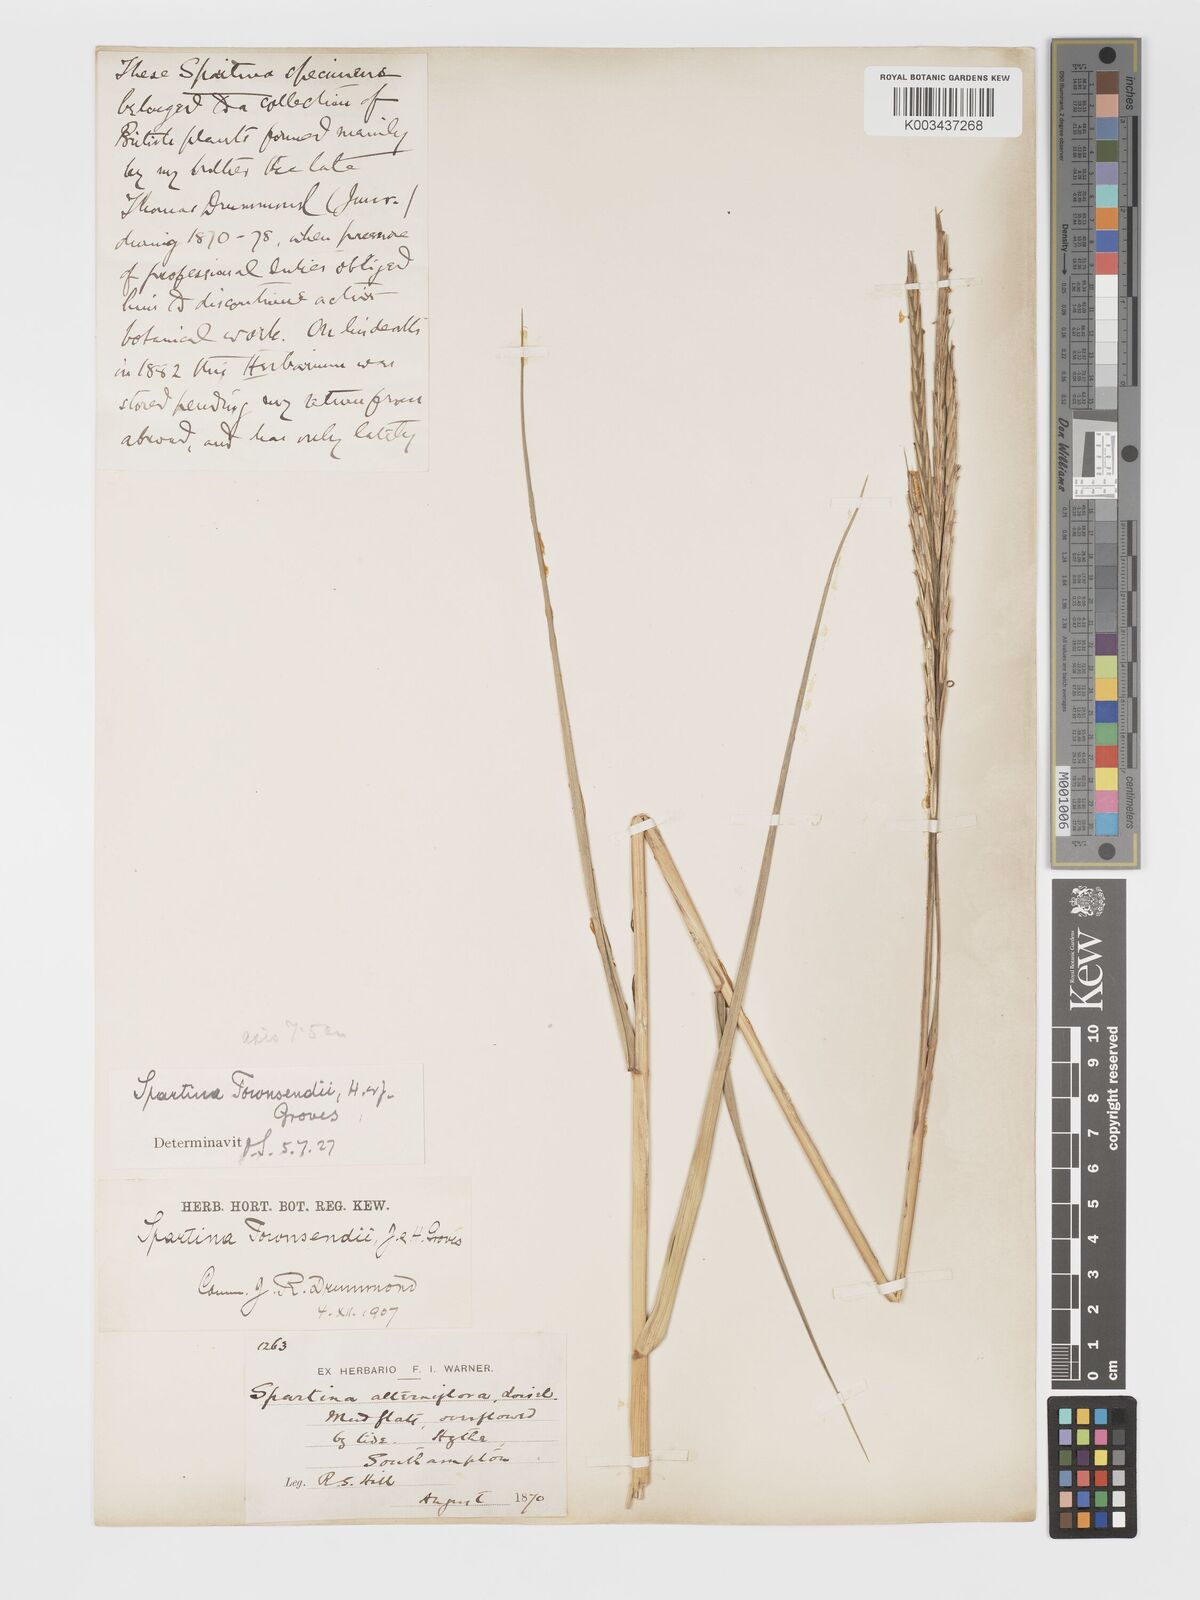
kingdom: Plantae
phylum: Tracheophyta
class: Liliopsida
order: Poales
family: Poaceae
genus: Sporobolus
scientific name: Sporobolus townsendii
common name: Townsend's cordgrass
